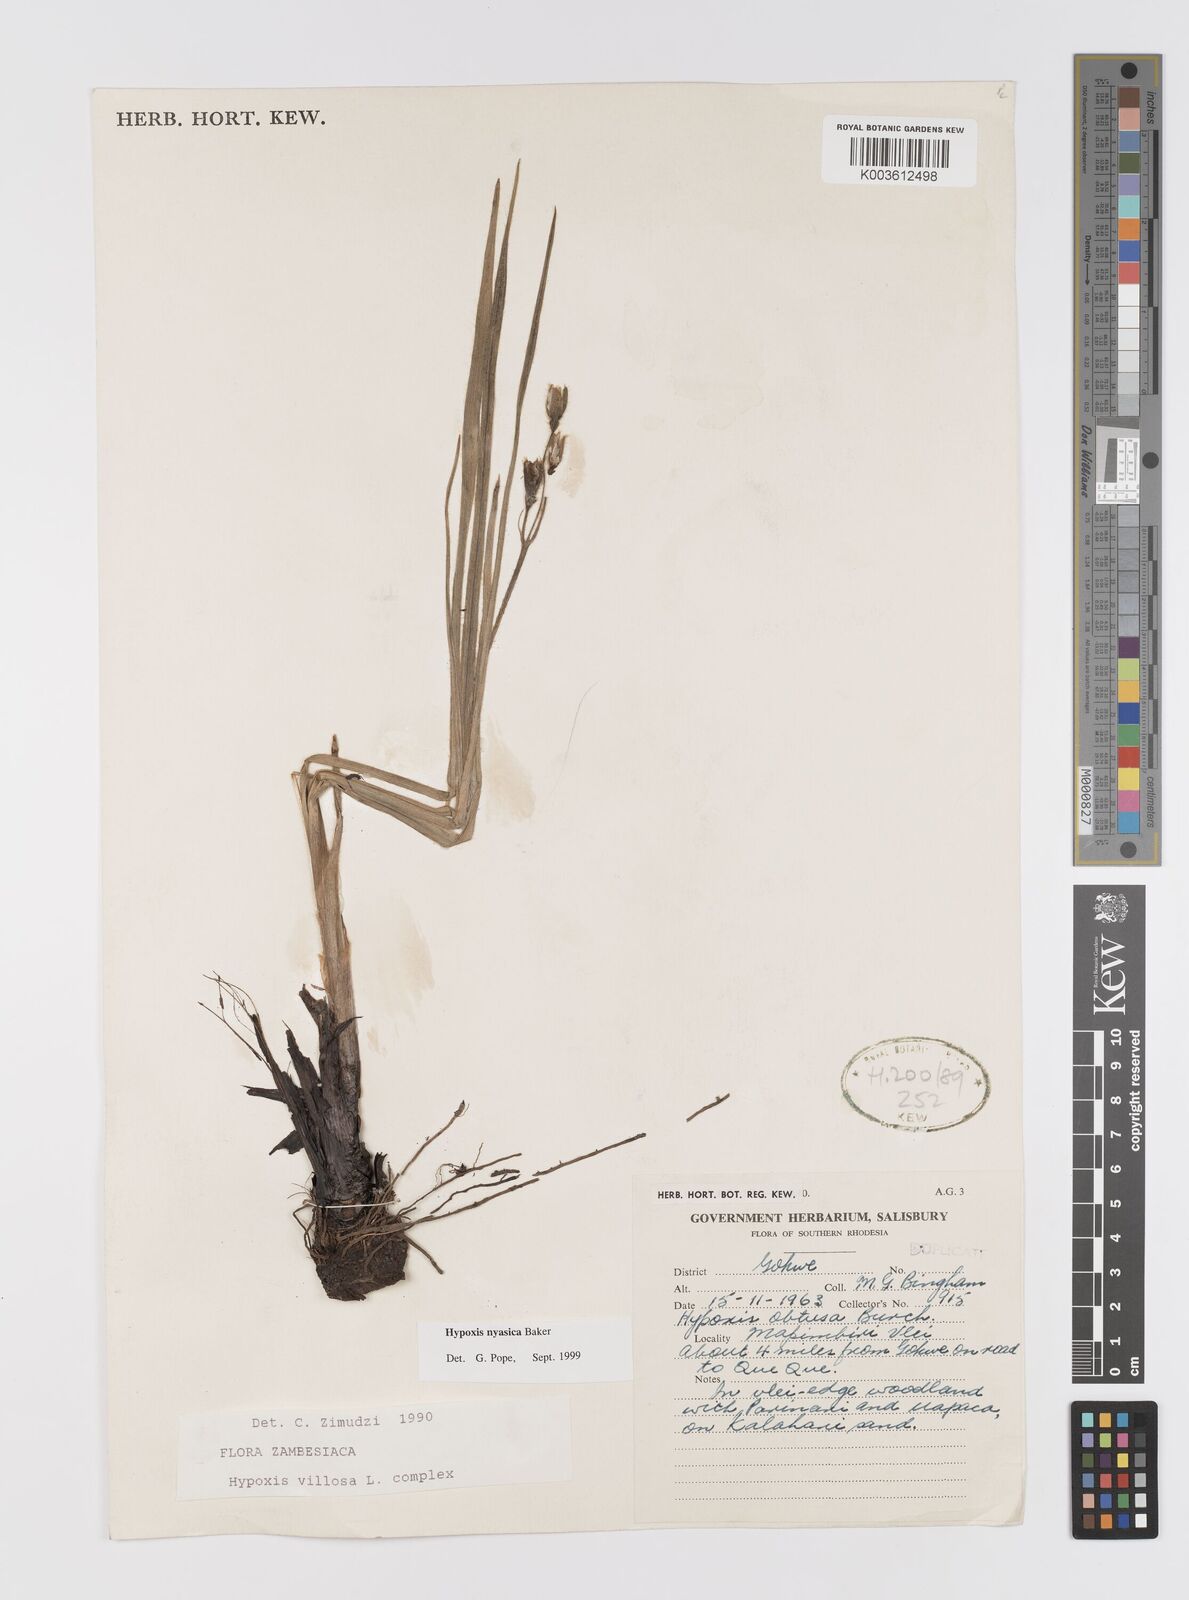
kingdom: Plantae
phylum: Tracheophyta
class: Liliopsida
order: Asparagales
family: Hypoxidaceae
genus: Hypoxis
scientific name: Hypoxis nyasica
